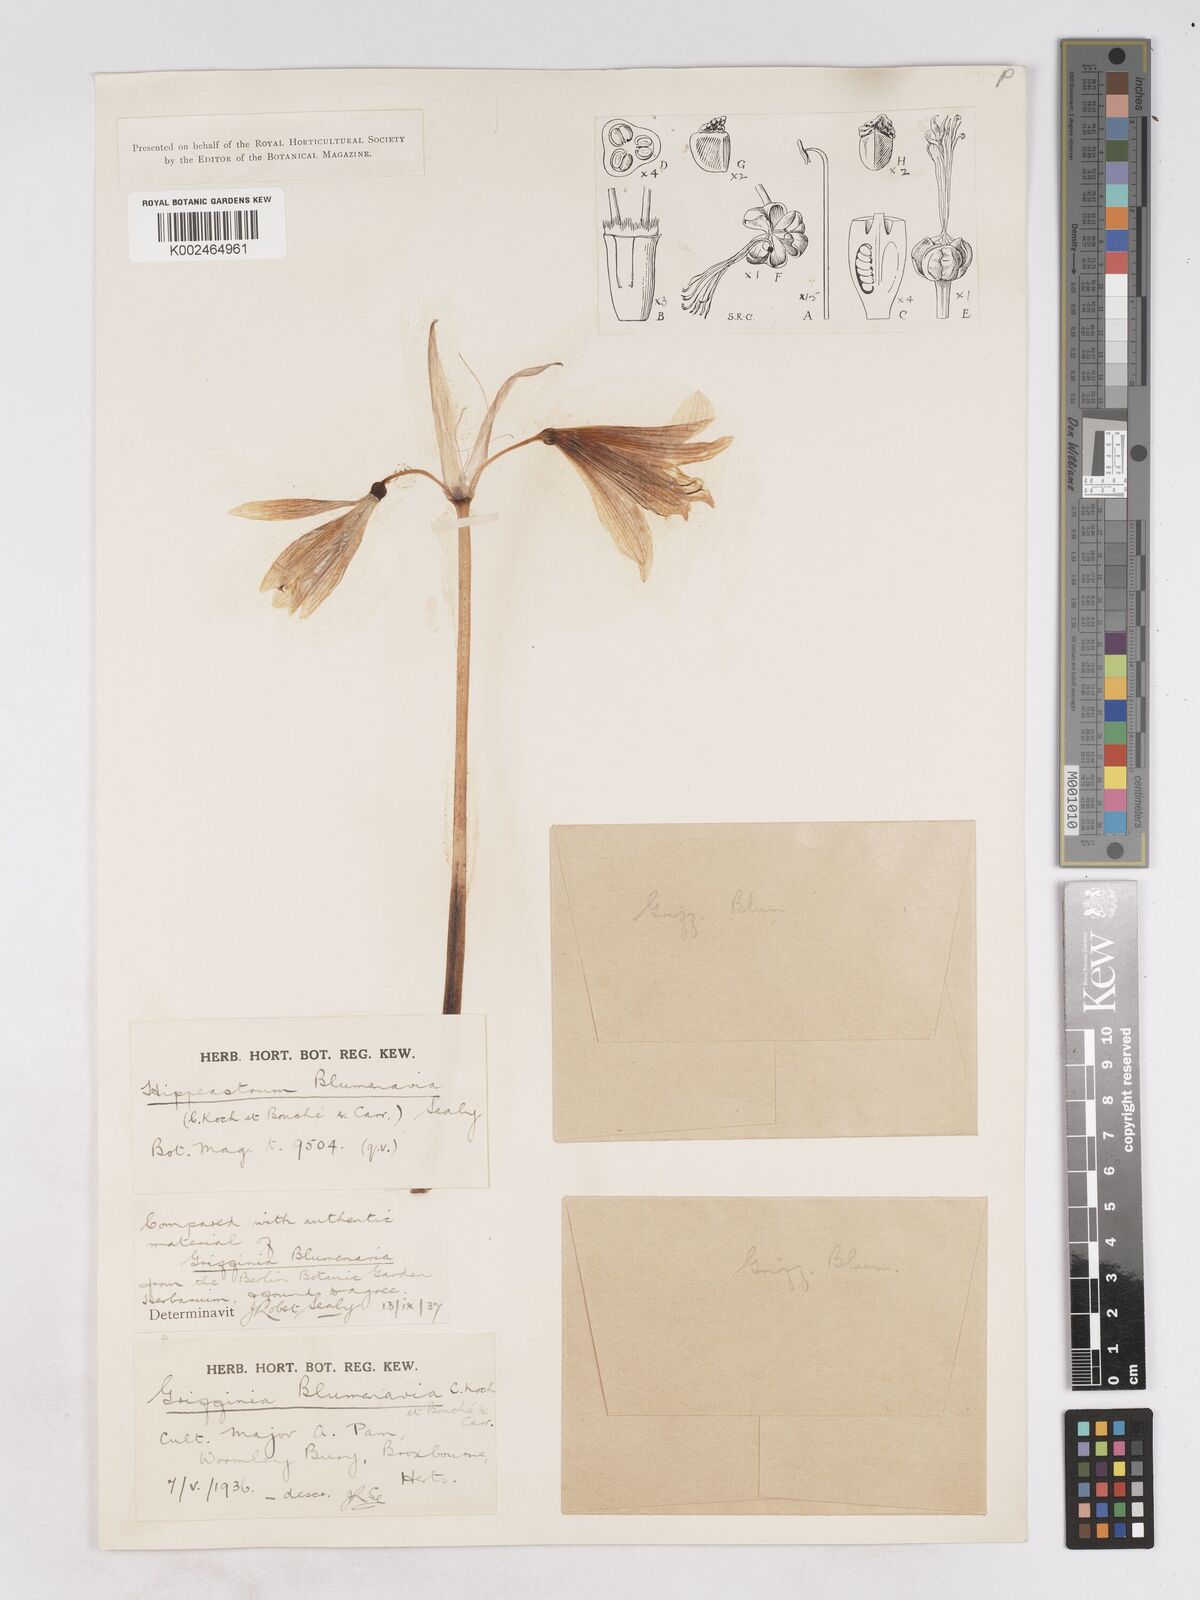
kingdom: Plantae
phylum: Tracheophyta
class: Liliopsida
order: Asparagales
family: Amaryllidaceae
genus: Zephyranthes
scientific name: Zephyranthes blumenavia
